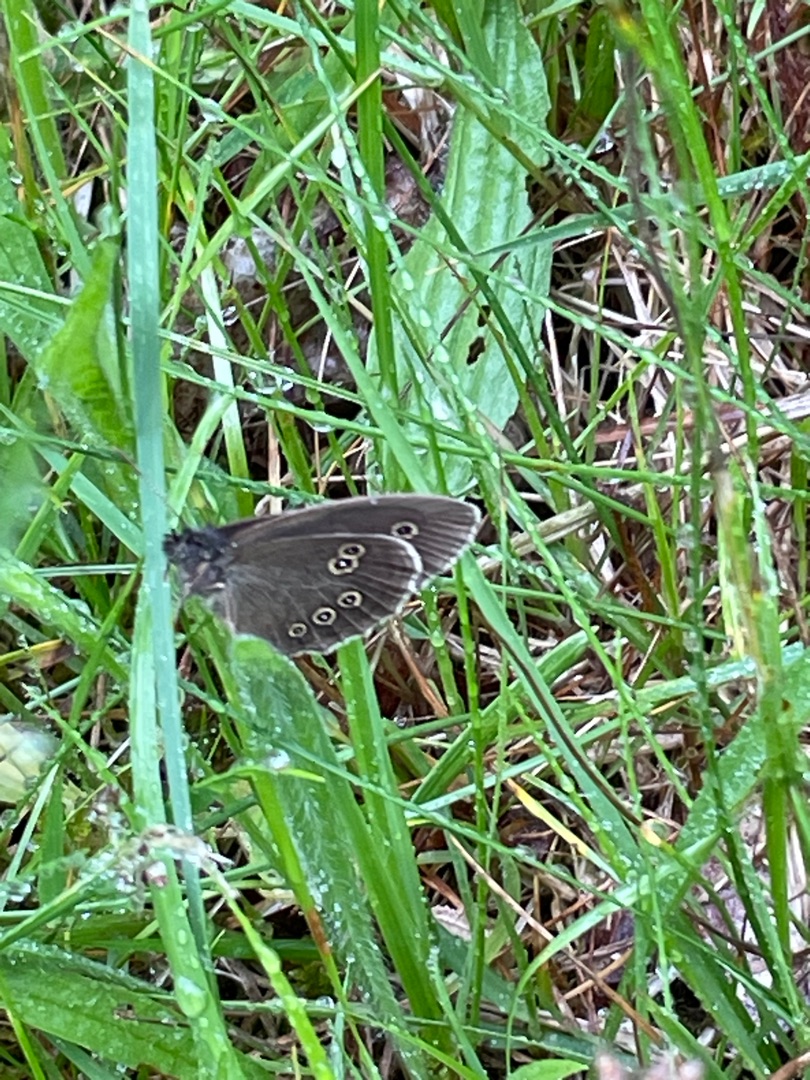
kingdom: Animalia
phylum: Arthropoda
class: Insecta
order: Lepidoptera
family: Nymphalidae
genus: Aphantopus
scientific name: Aphantopus hyperantus
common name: Engrandøje
